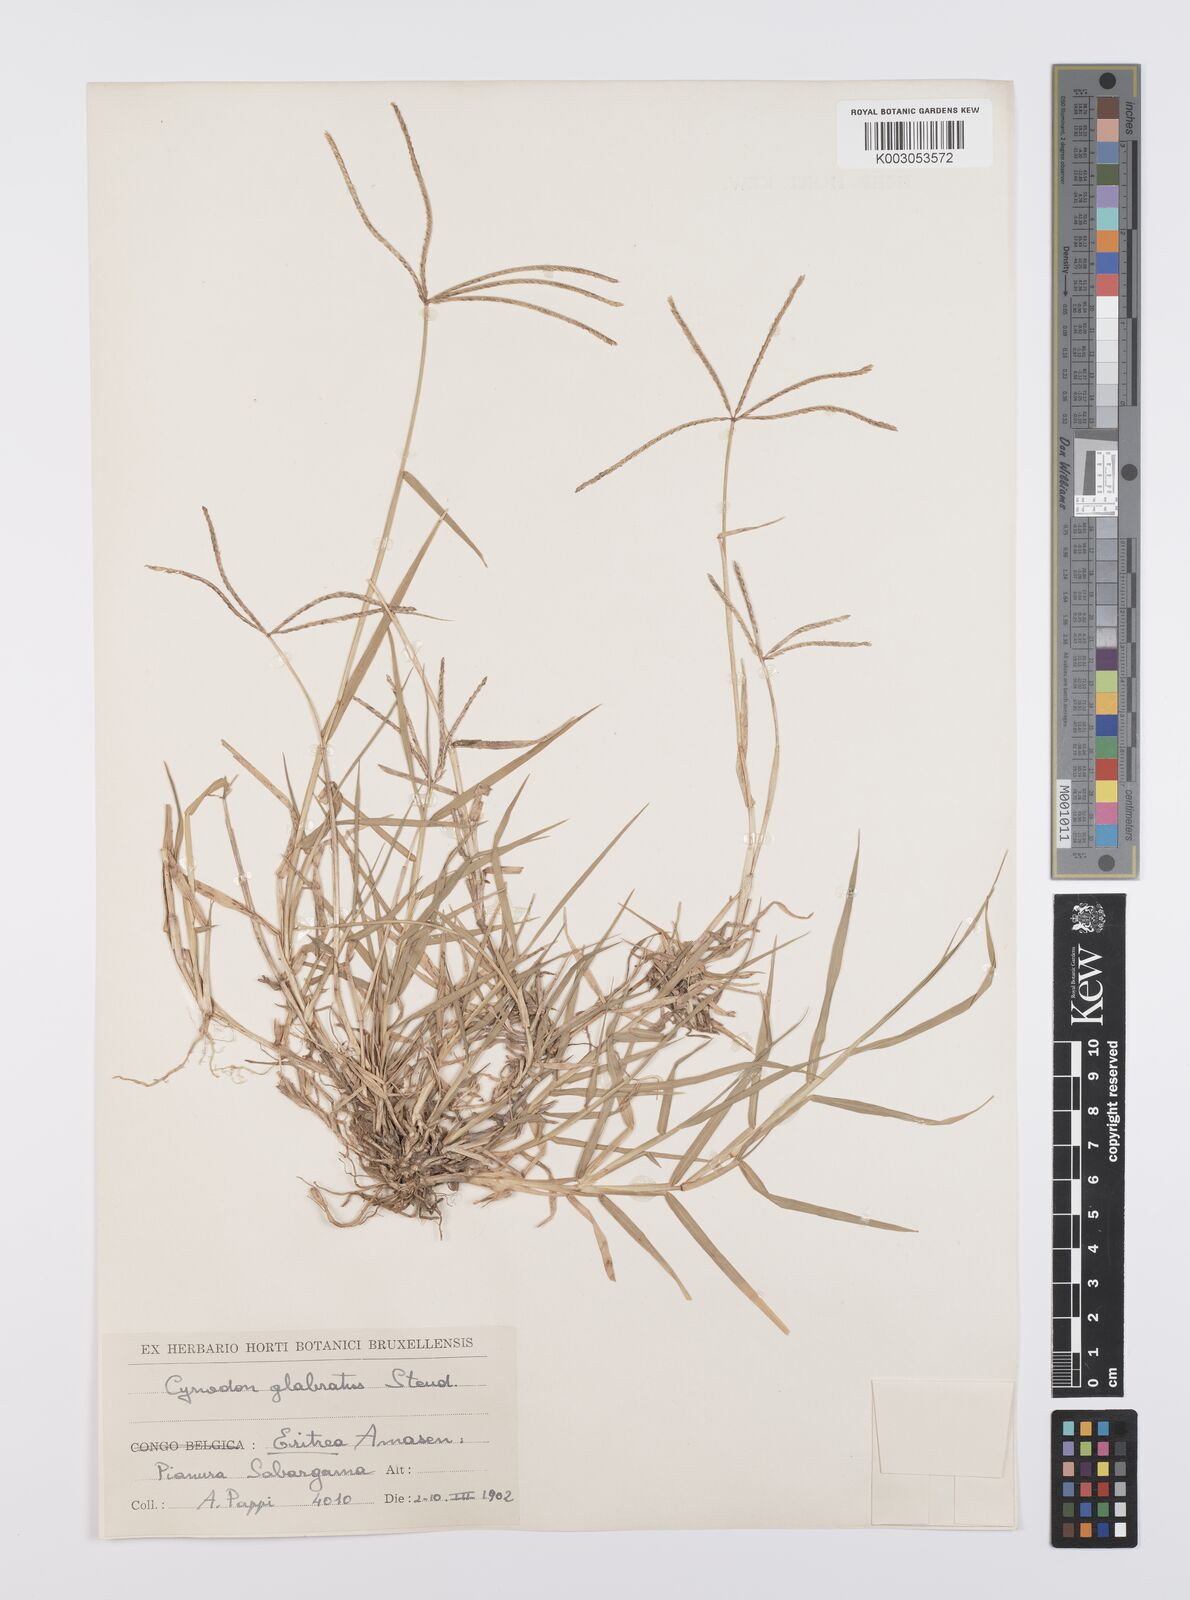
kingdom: Plantae
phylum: Tracheophyta
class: Liliopsida
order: Poales
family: Poaceae
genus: Cynodon
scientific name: Cynodon dactylon
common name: Bermuda grass
